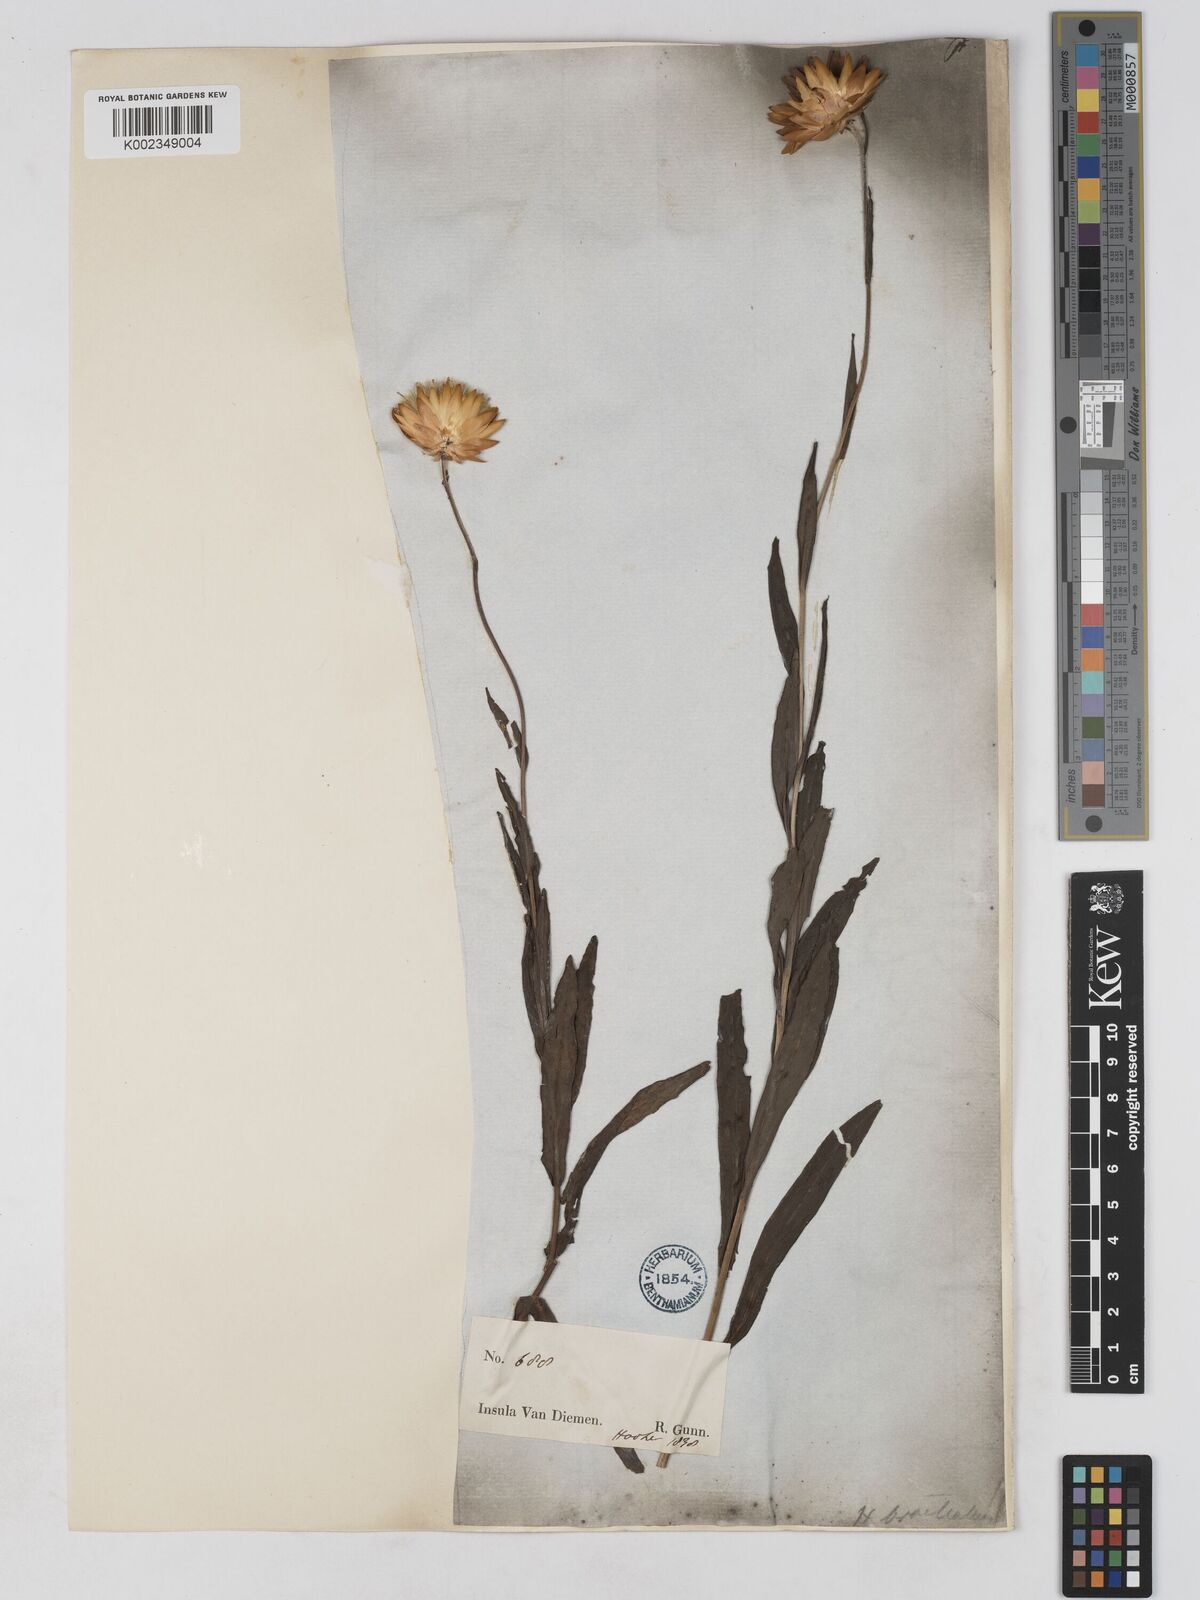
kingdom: Plantae
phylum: Tracheophyta
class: Magnoliopsida
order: Asterales
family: Asteraceae
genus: Xerochrysum
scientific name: Xerochrysum bracteatum
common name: Bracted strawflower
